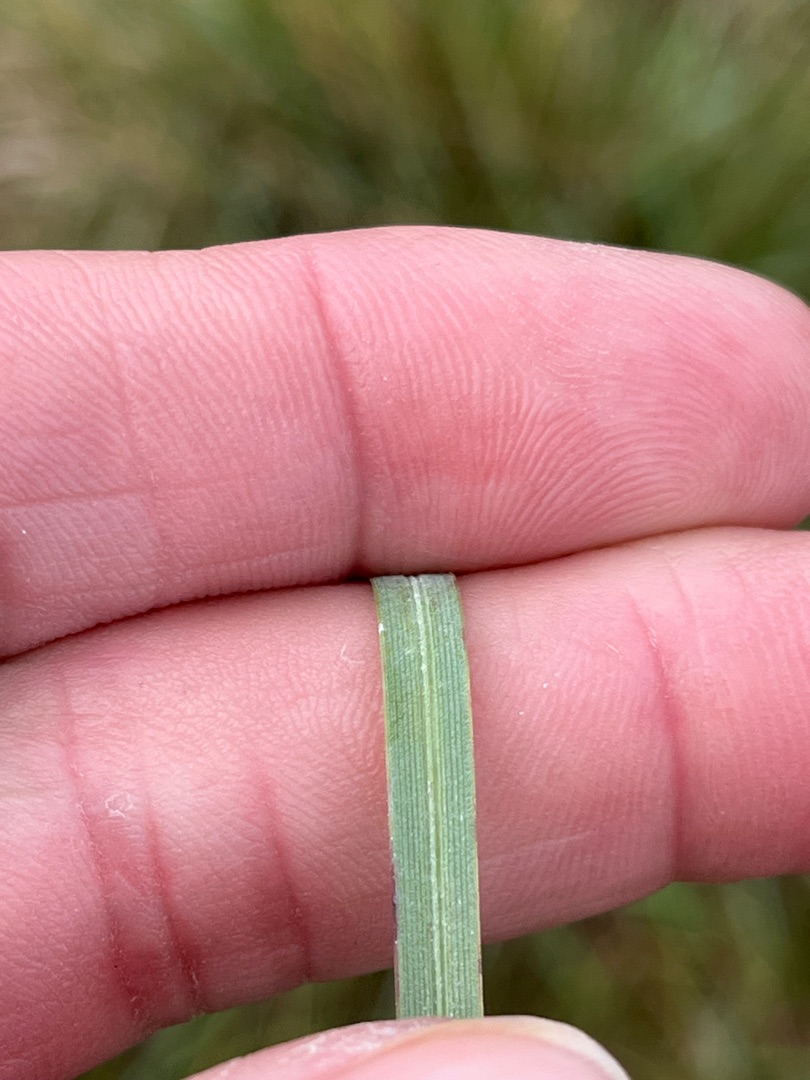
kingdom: Plantae
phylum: Tracheophyta
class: Liliopsida
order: Poales
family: Poaceae
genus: Helictochloa
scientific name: Helictochloa pratensis
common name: Eng-havre
